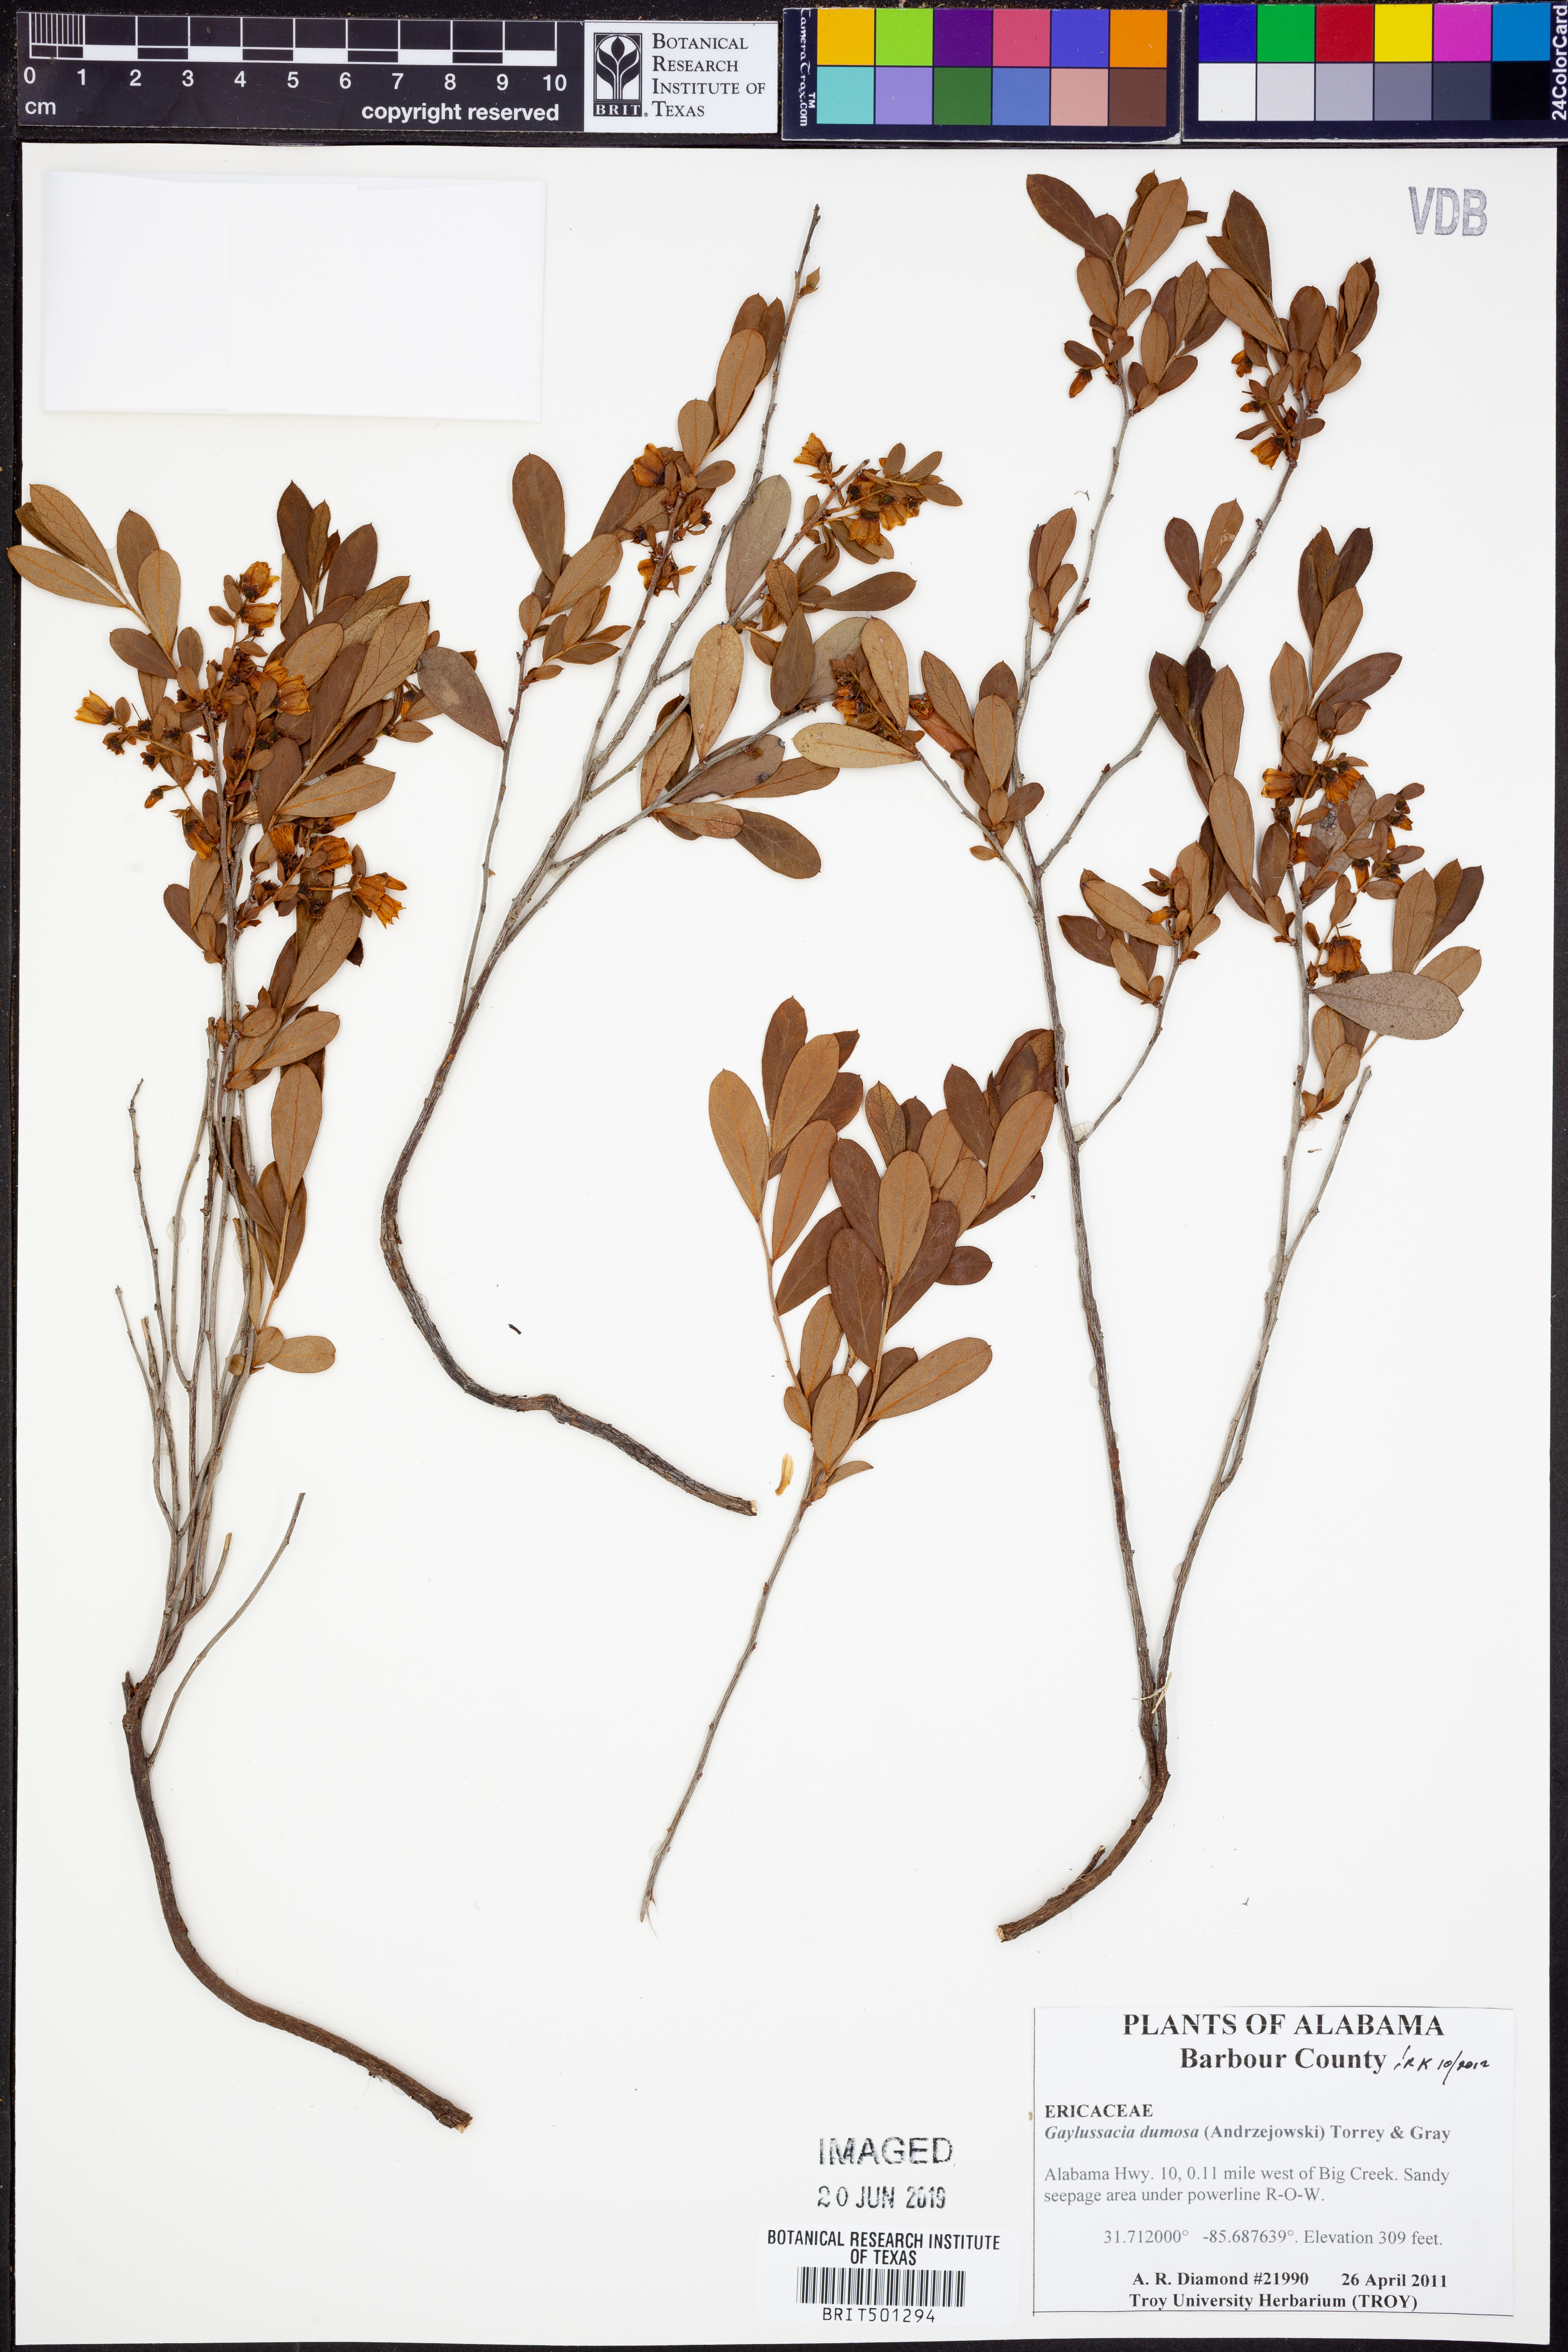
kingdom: Plantae
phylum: Tracheophyta
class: Magnoliopsida
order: Ericales
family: Ericaceae
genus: Gaylussacia
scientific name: Gaylussacia dumosa
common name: Dwarf huckleberry
